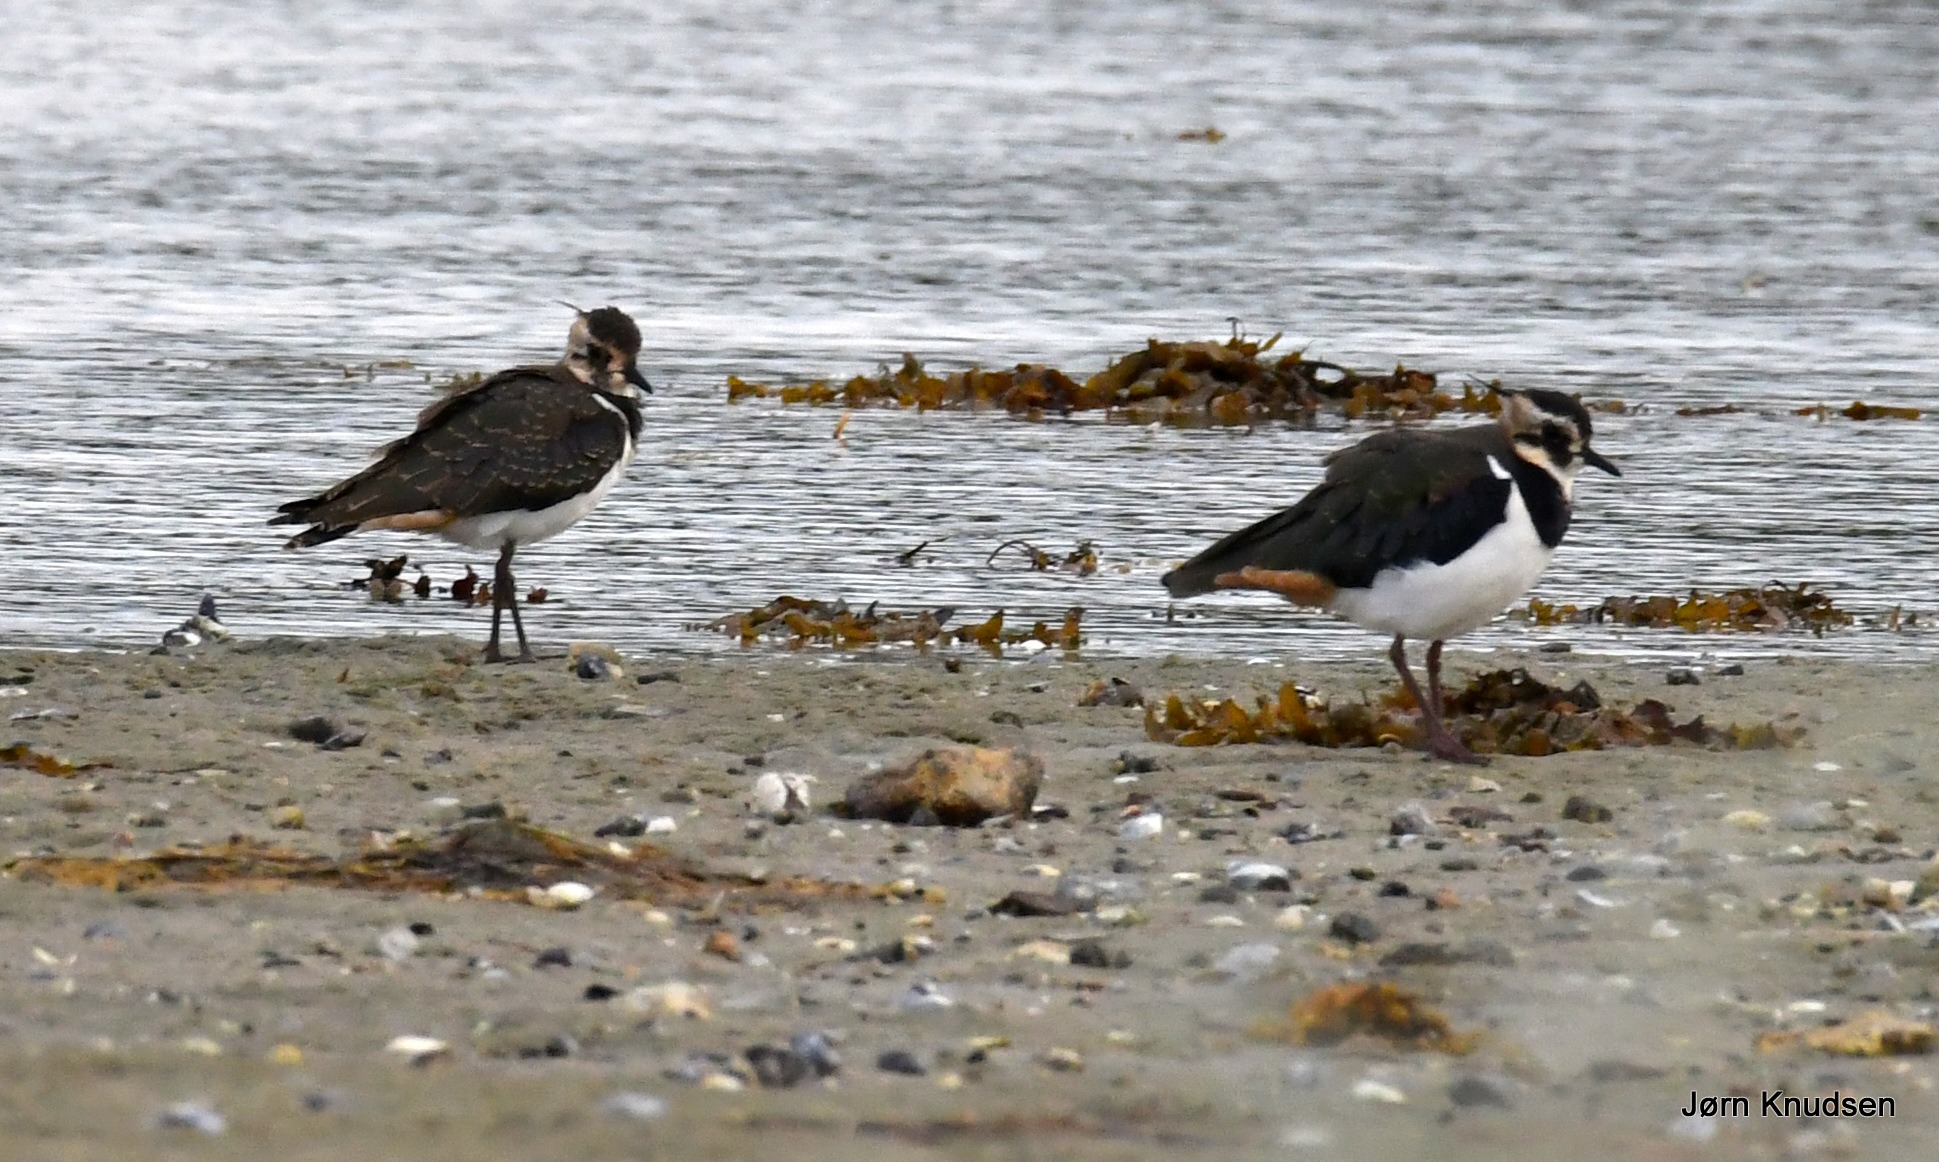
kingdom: Animalia
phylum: Chordata
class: Aves
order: Charadriiformes
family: Charadriidae
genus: Vanellus
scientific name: Vanellus vanellus
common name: Vibe
